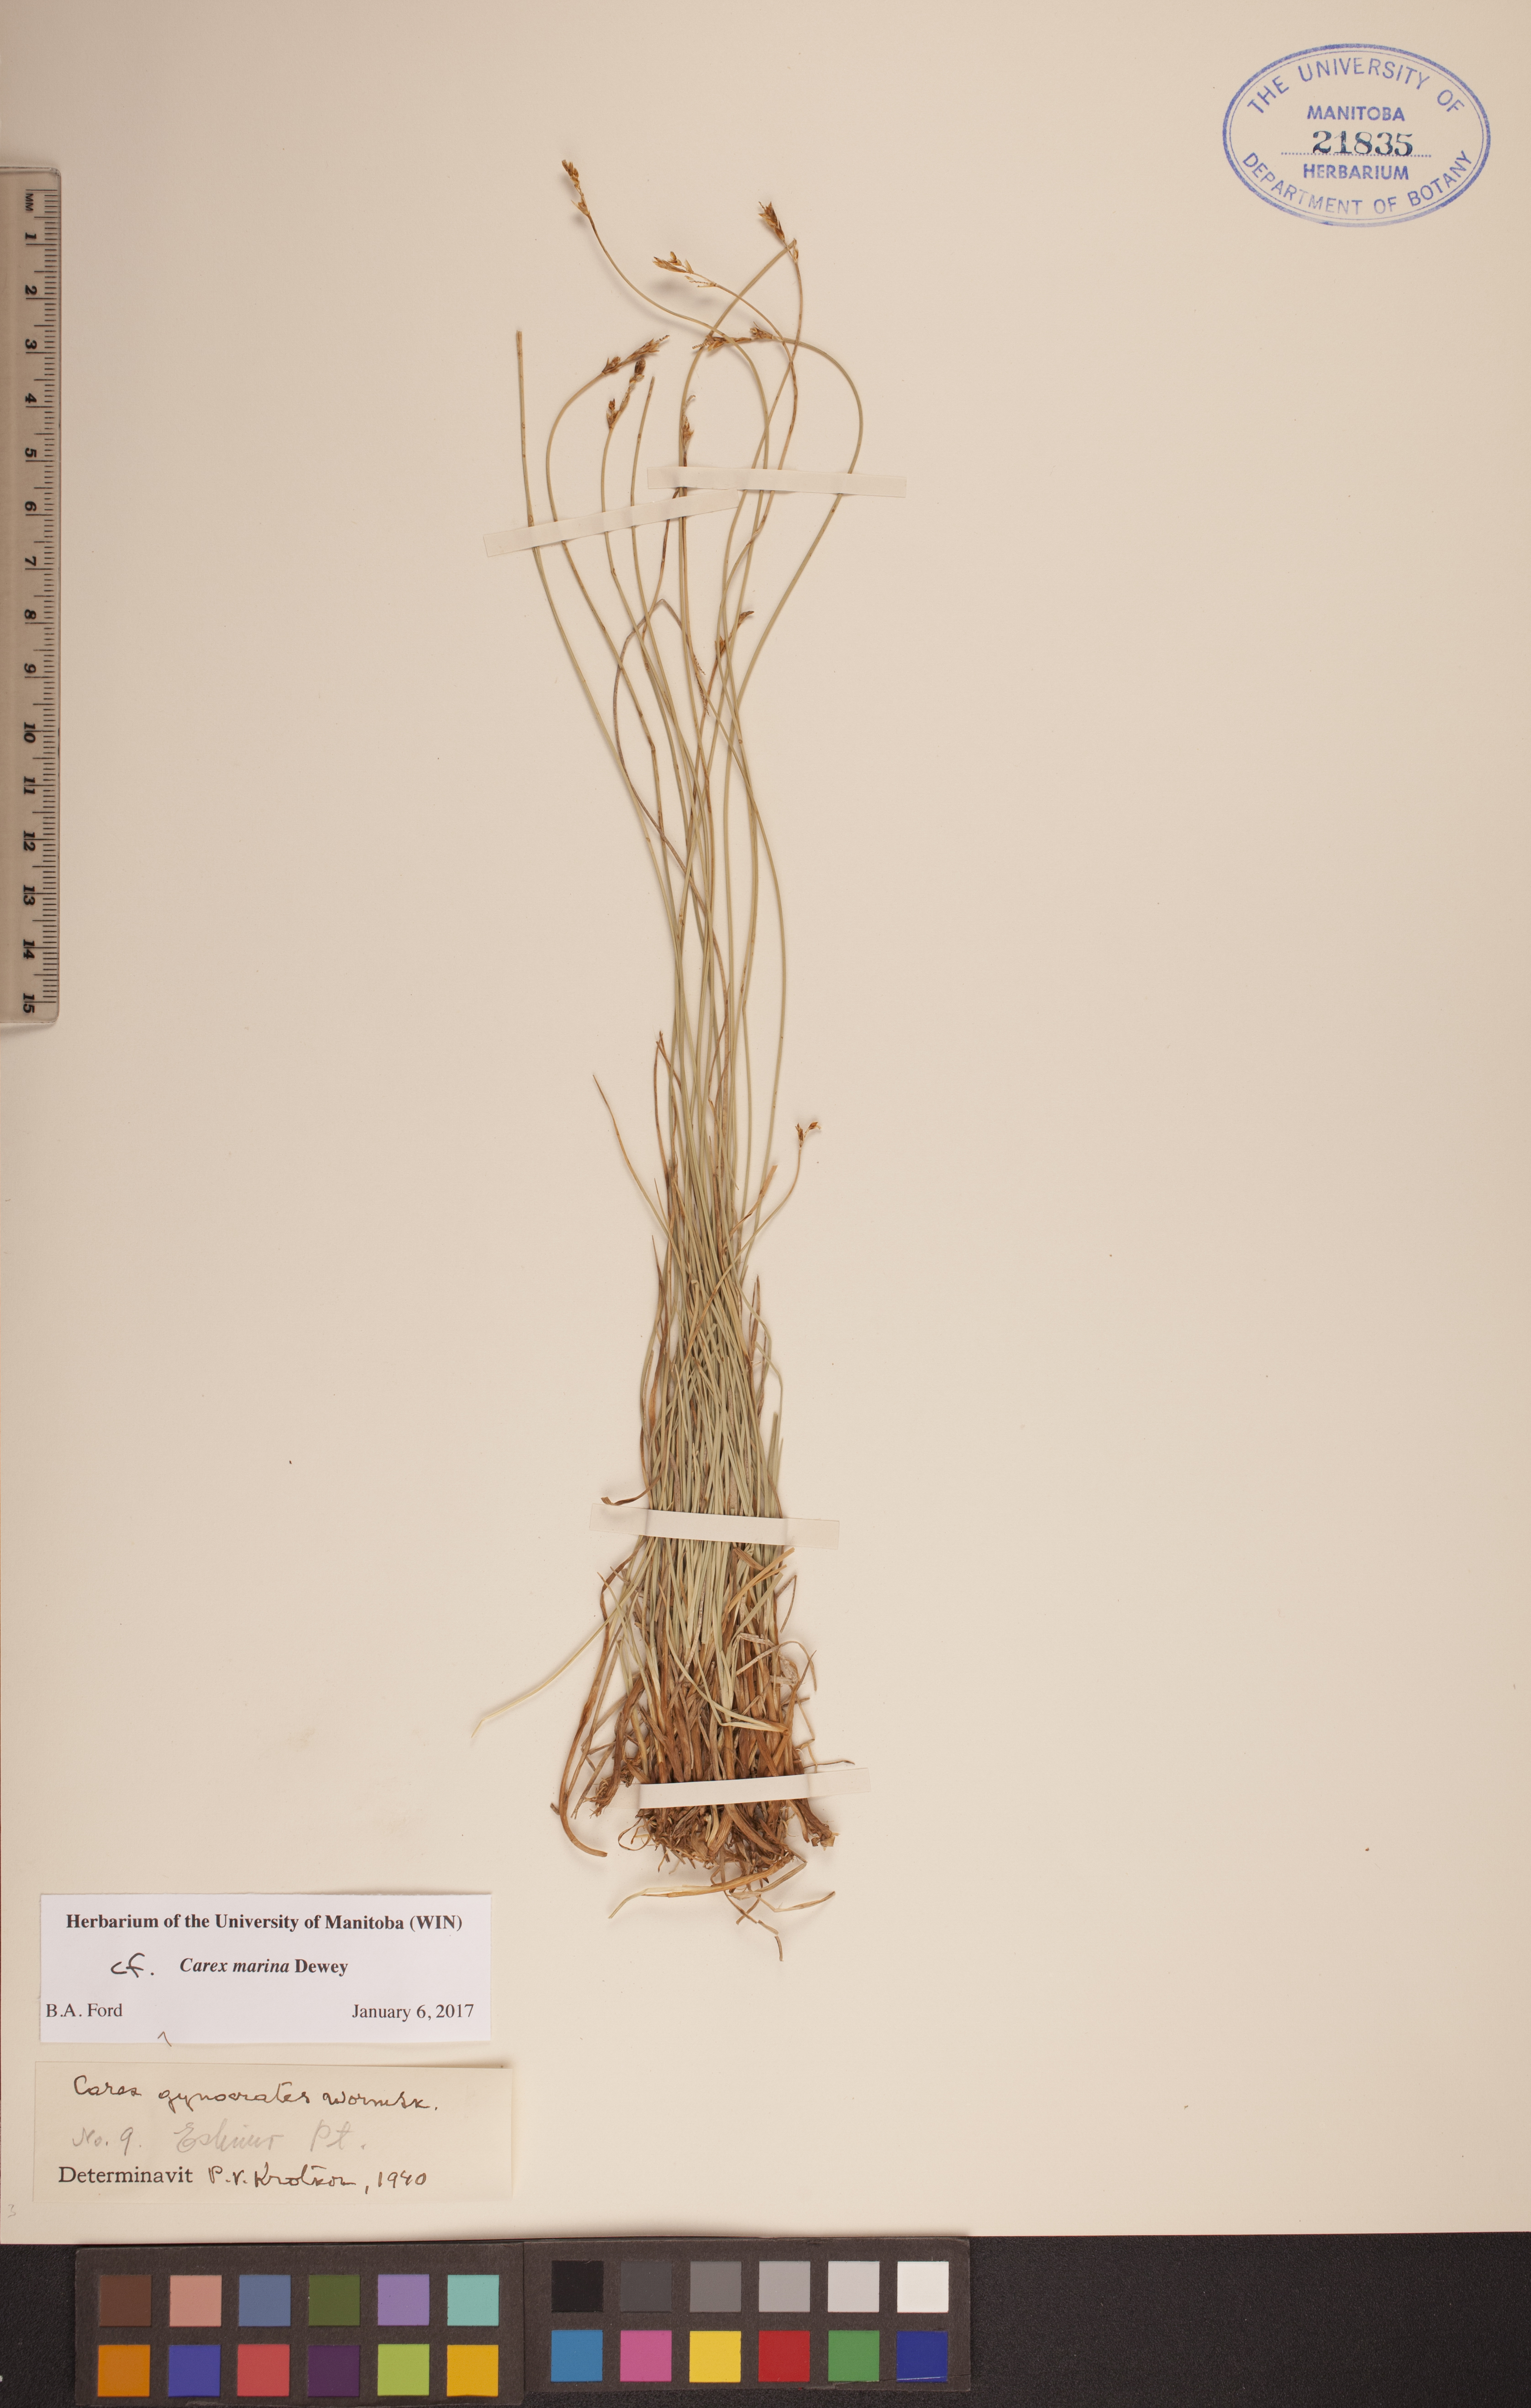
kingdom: Plantae
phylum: Tracheophyta
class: Liliopsida
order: Poales
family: Cyperaceae
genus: Carex
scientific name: Carex marina
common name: Seashore sedge
